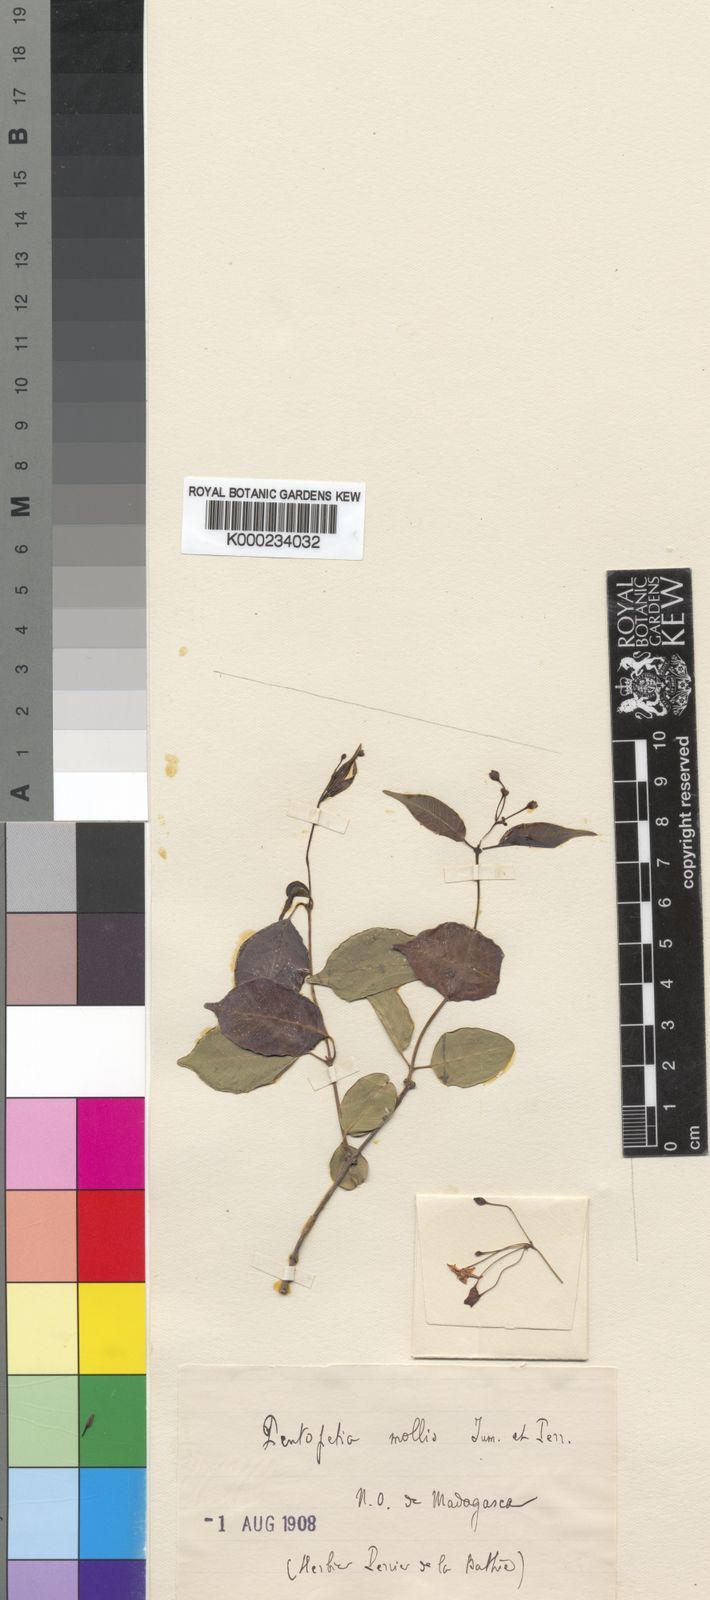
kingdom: Plantae
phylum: Tracheophyta
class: Magnoliopsida
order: Gentianales
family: Apocynaceae
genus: Pentopetia
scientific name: Pentopetia mollis
